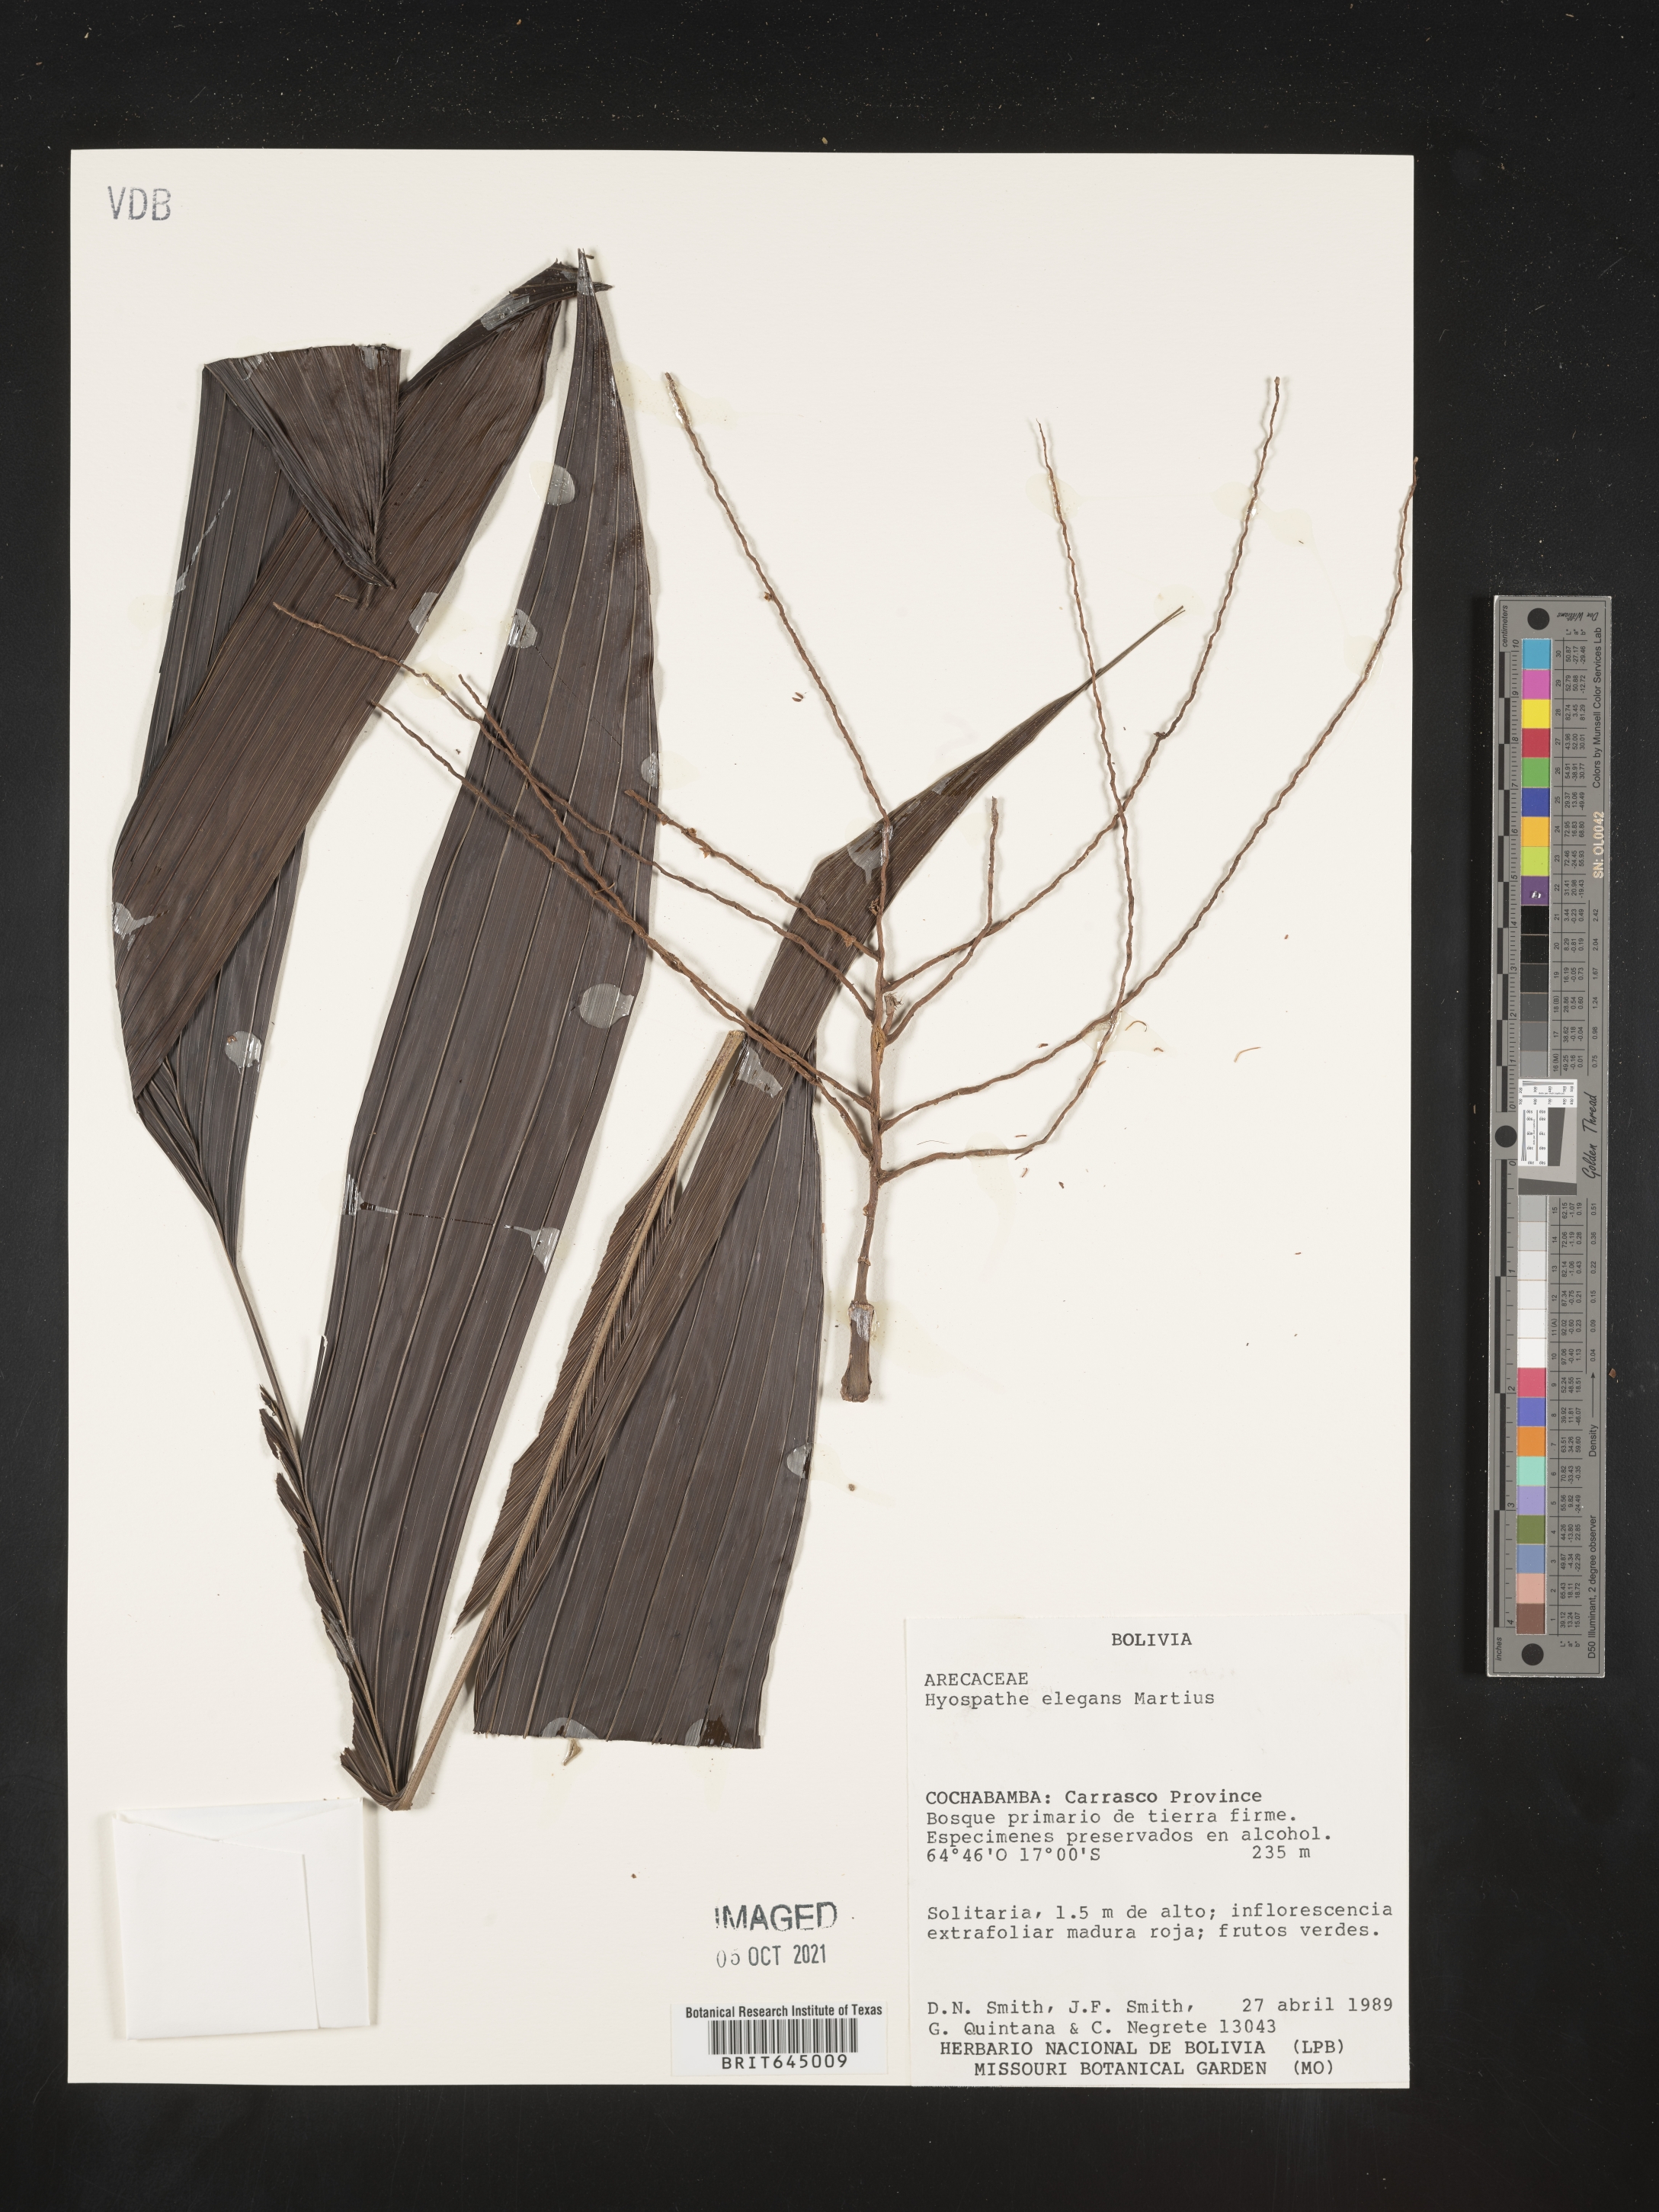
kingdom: Plantae
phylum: Tracheophyta
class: Liliopsida
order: Arecales
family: Arecaceae
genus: Hyospathe
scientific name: Hyospathe elegans
